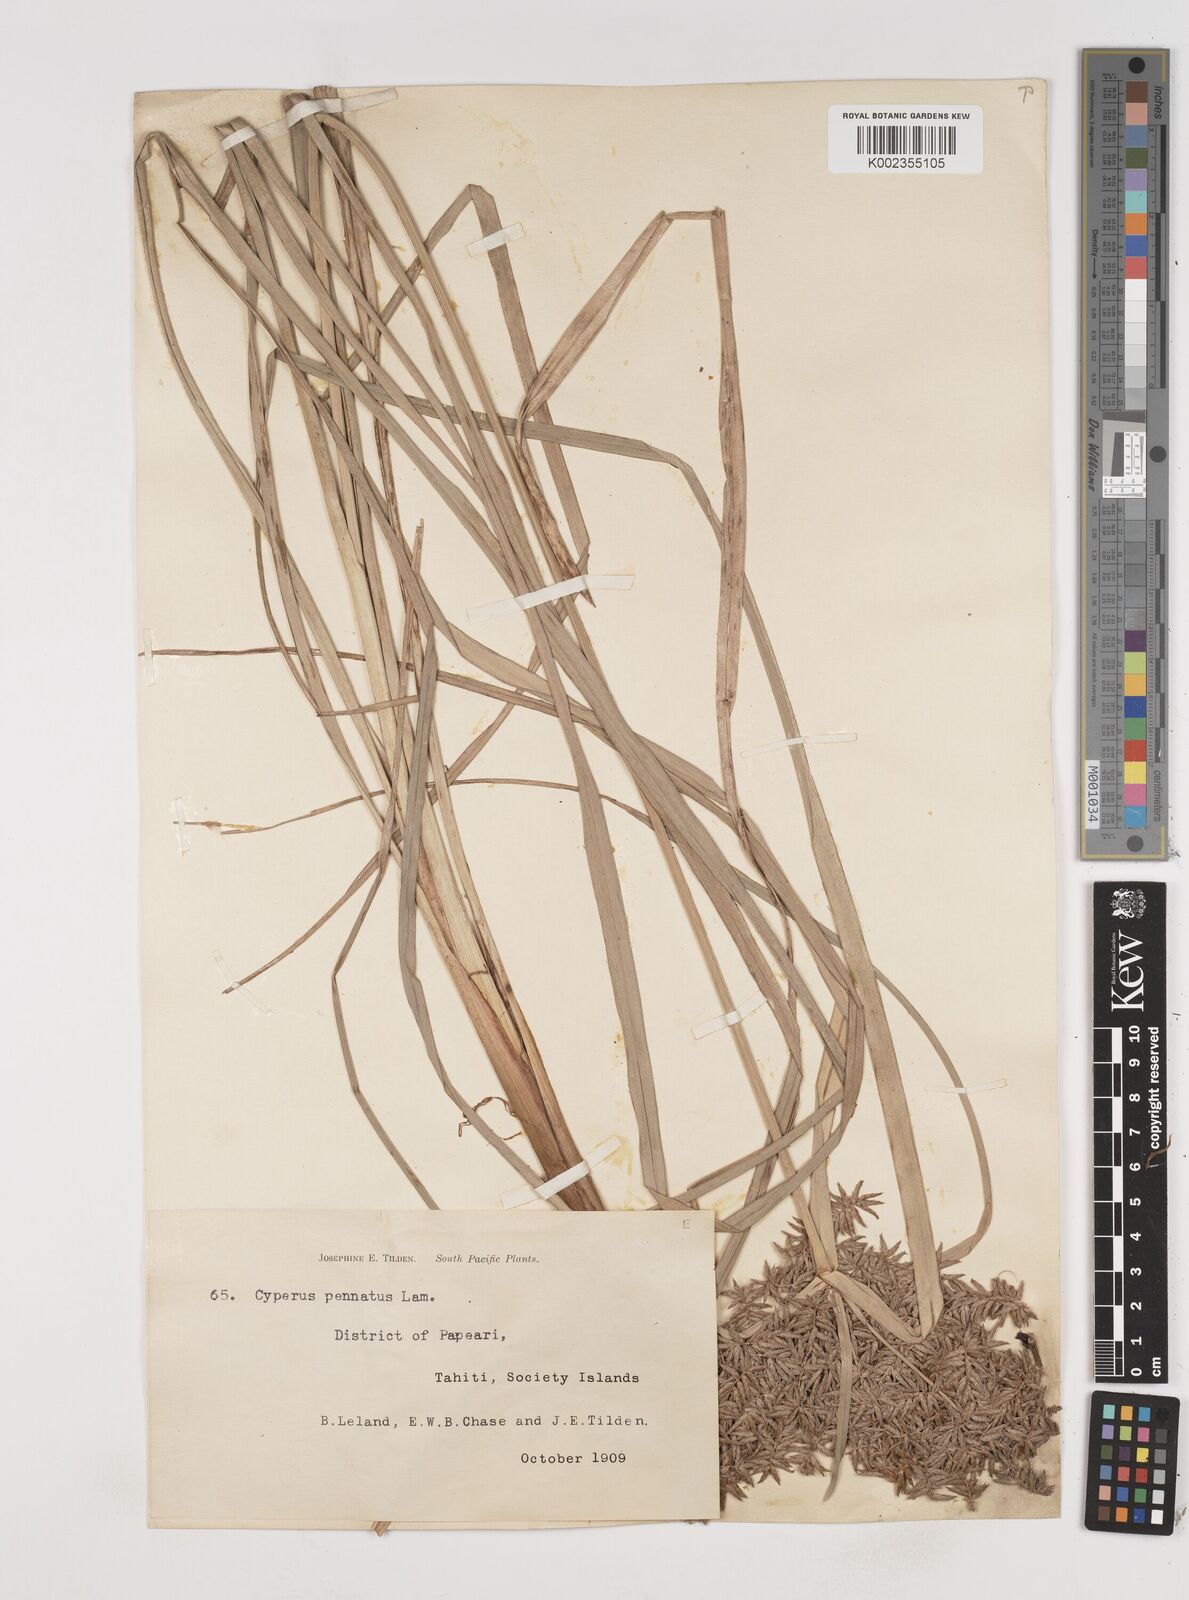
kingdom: Plantae
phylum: Tracheophyta
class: Liliopsida
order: Poales
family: Cyperaceae
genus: Cyperus
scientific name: Cyperus javanicus
